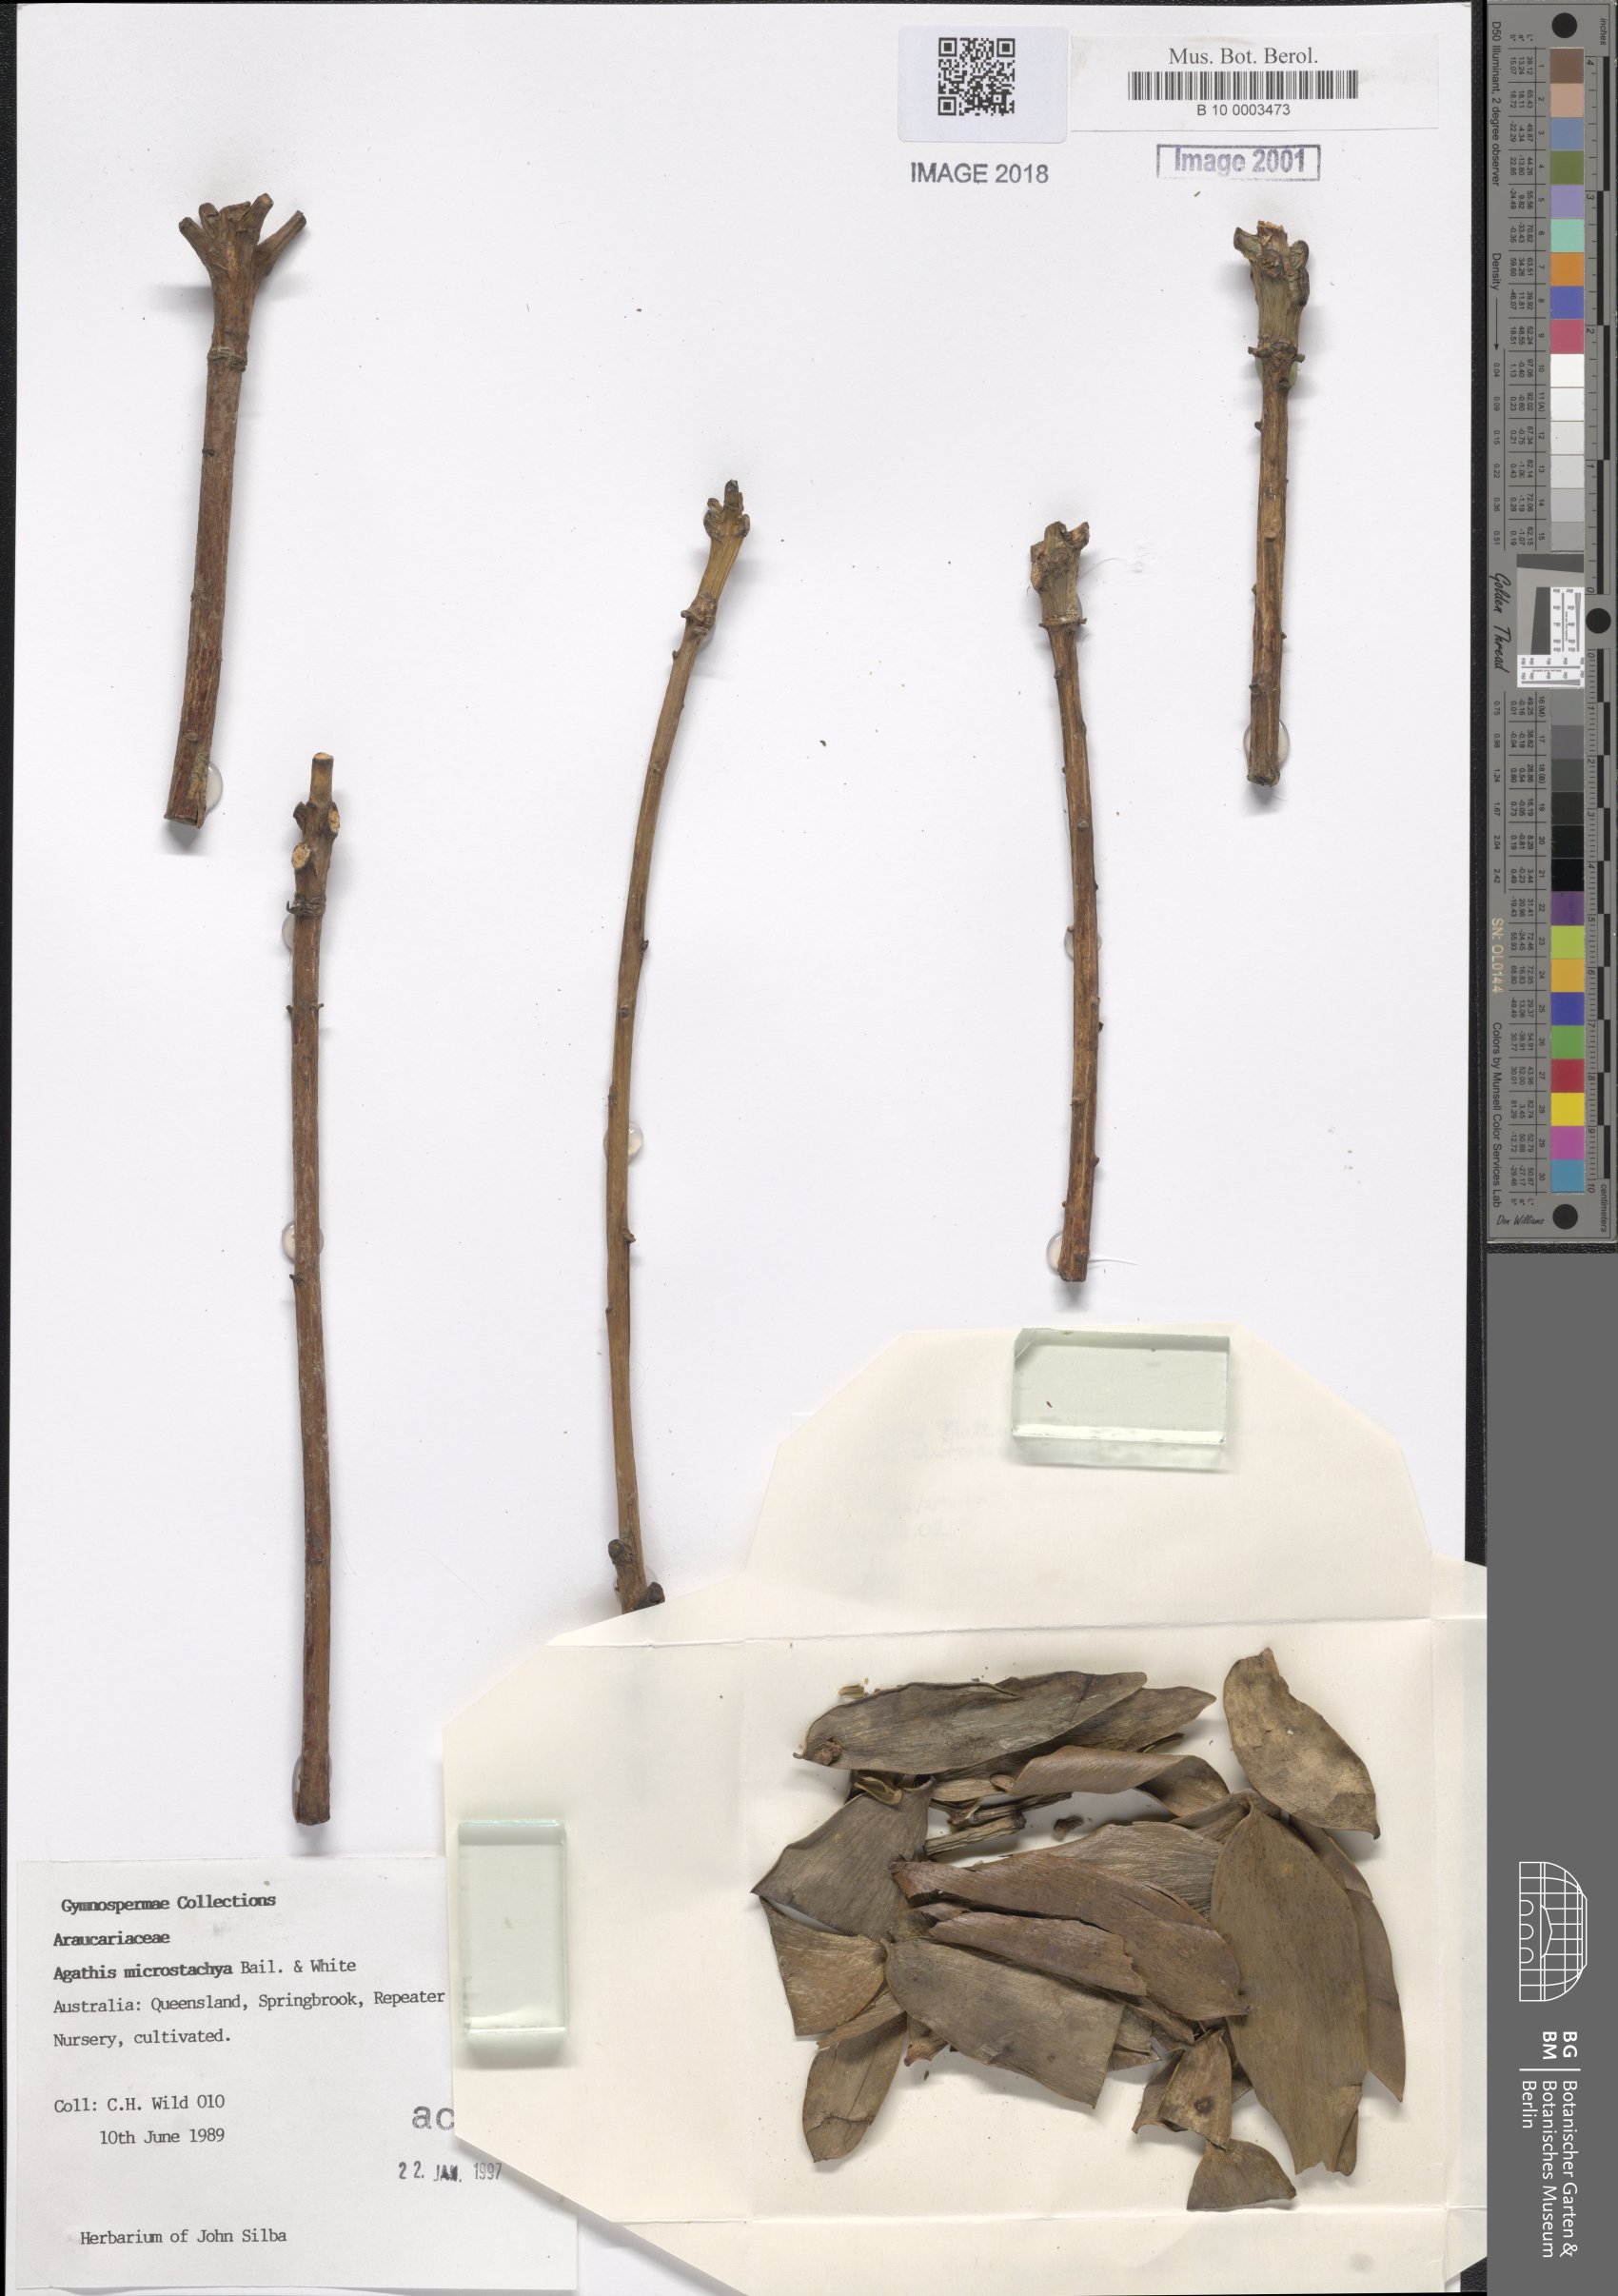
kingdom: Plantae
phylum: Tracheophyta
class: Pinopsida
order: Pinales
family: Araucariaceae
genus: Agathis
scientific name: Agathis microstachya
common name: Bull kauri
